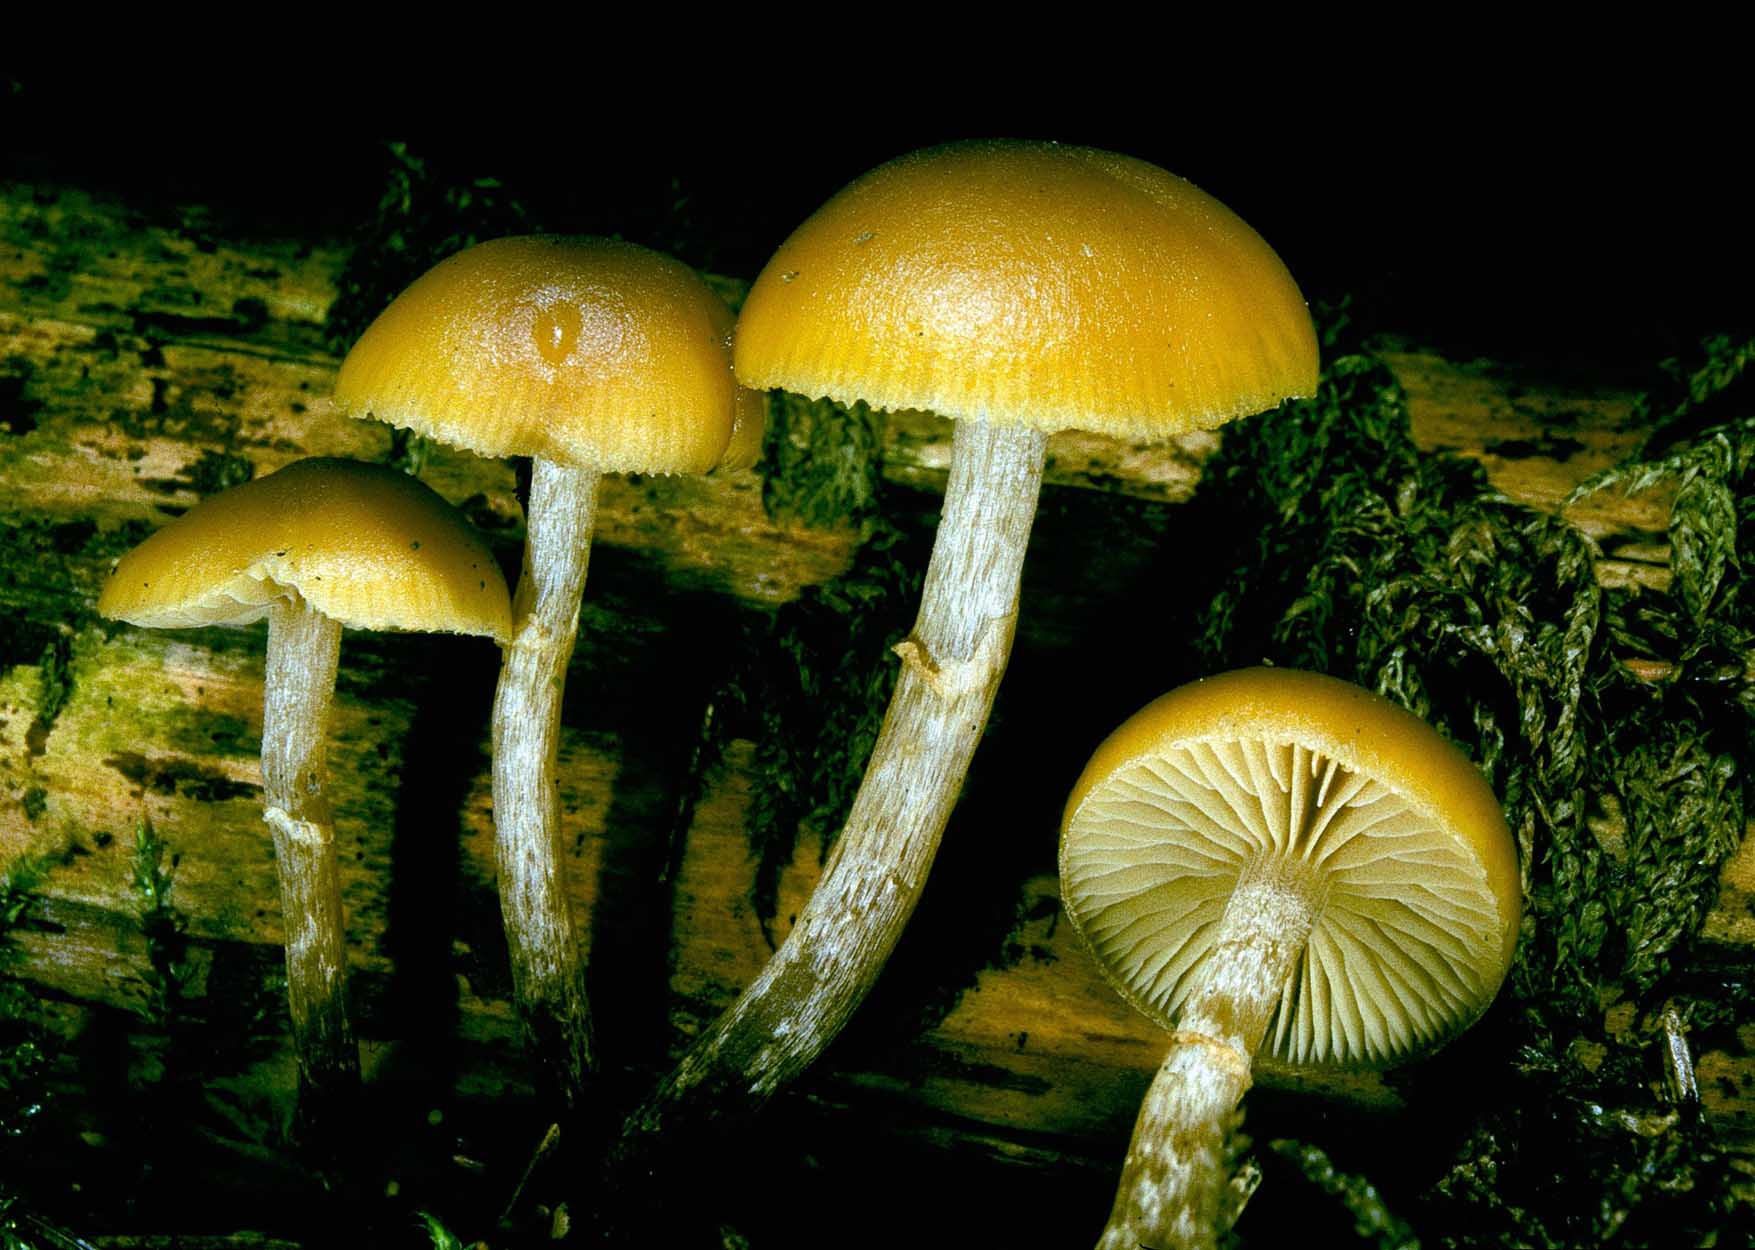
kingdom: Fungi
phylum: Basidiomycota
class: Agaricomycetes
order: Agaricales
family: Hymenogastraceae
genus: Galerina
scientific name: Galerina marginata
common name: randbæltet hjelmhat
